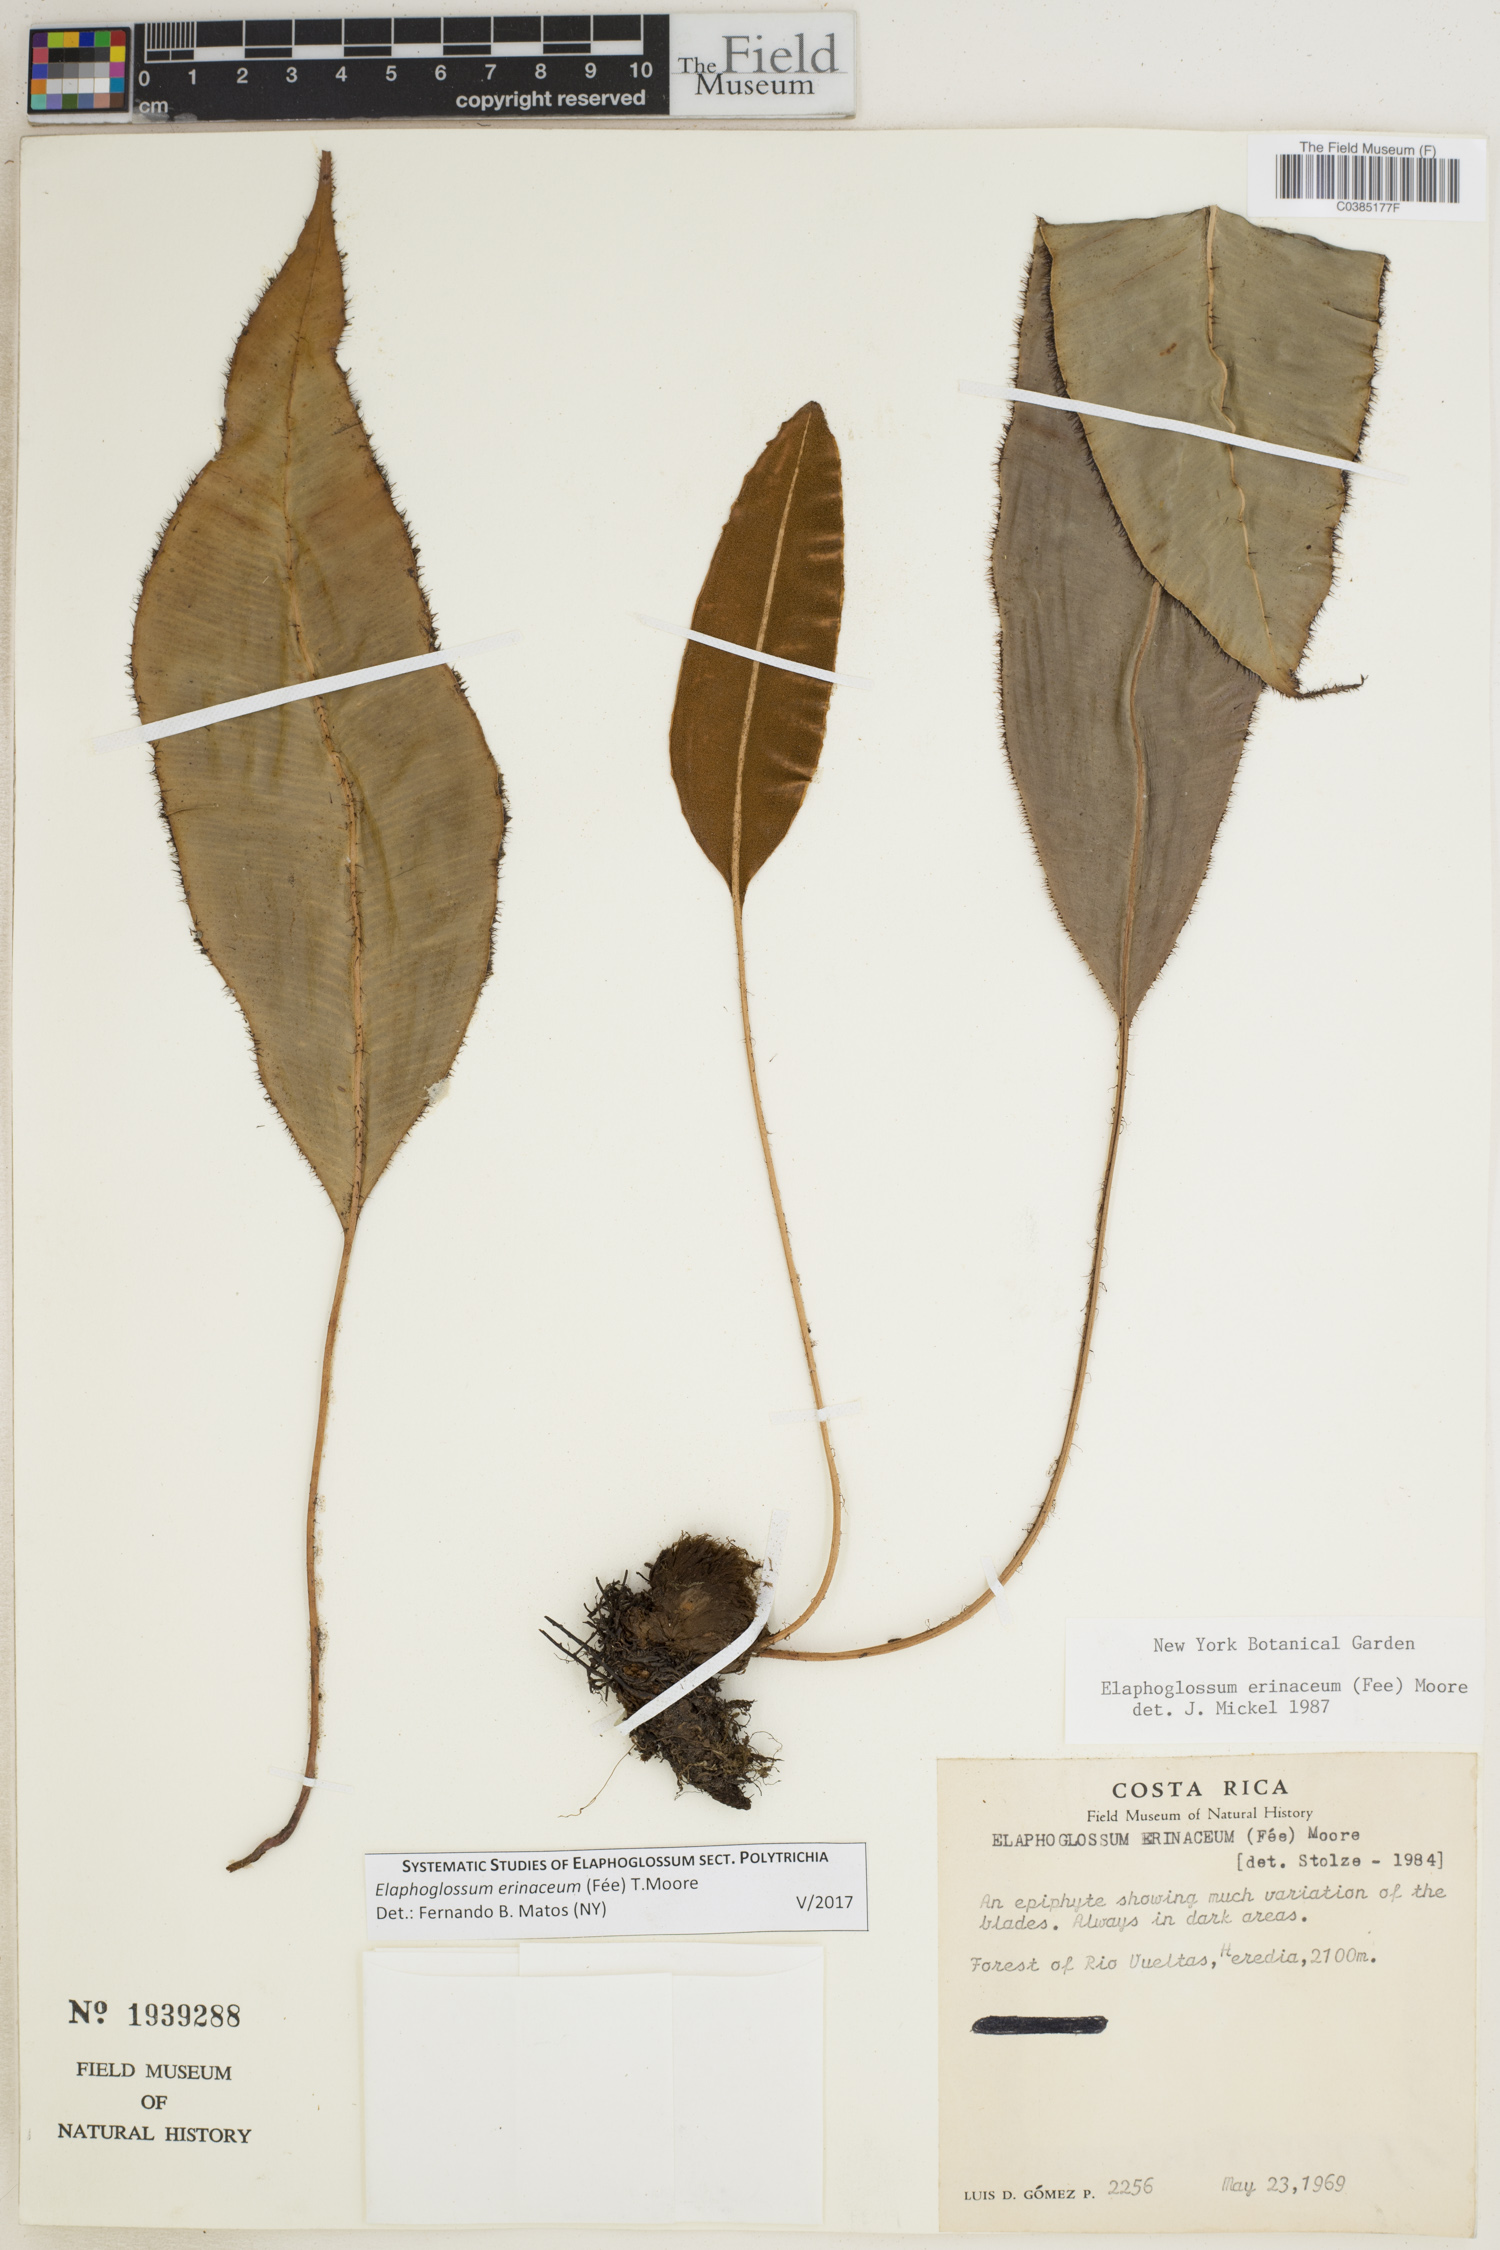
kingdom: Plantae
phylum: Tracheophyta
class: Polypodiopsida
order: Polypodiales
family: Dryopteridaceae
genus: Elaphoglossum
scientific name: Elaphoglossum erinaceum
